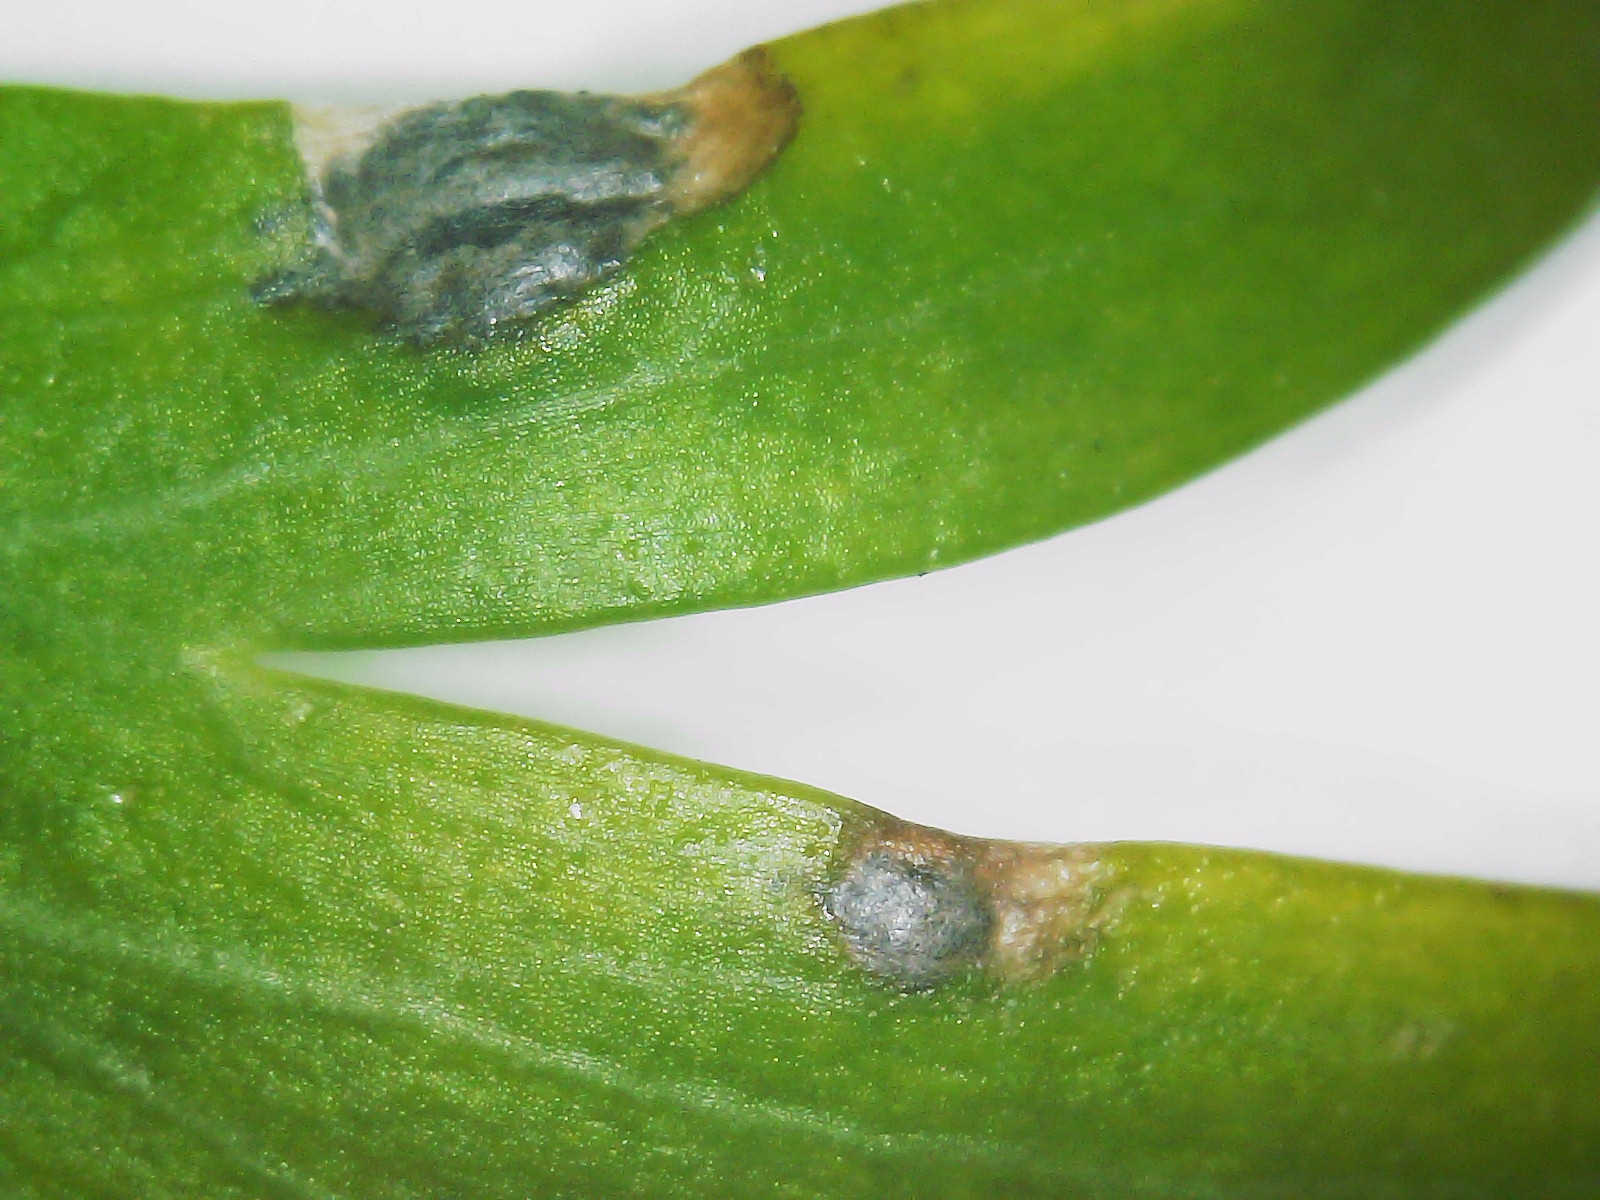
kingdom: Fungi
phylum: Basidiomycota
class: Ustilaginomycetes
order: Urocystidales
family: Urocystidaceae
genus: Urocystis
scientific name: Urocystis eranthidis
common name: erantis-brand
